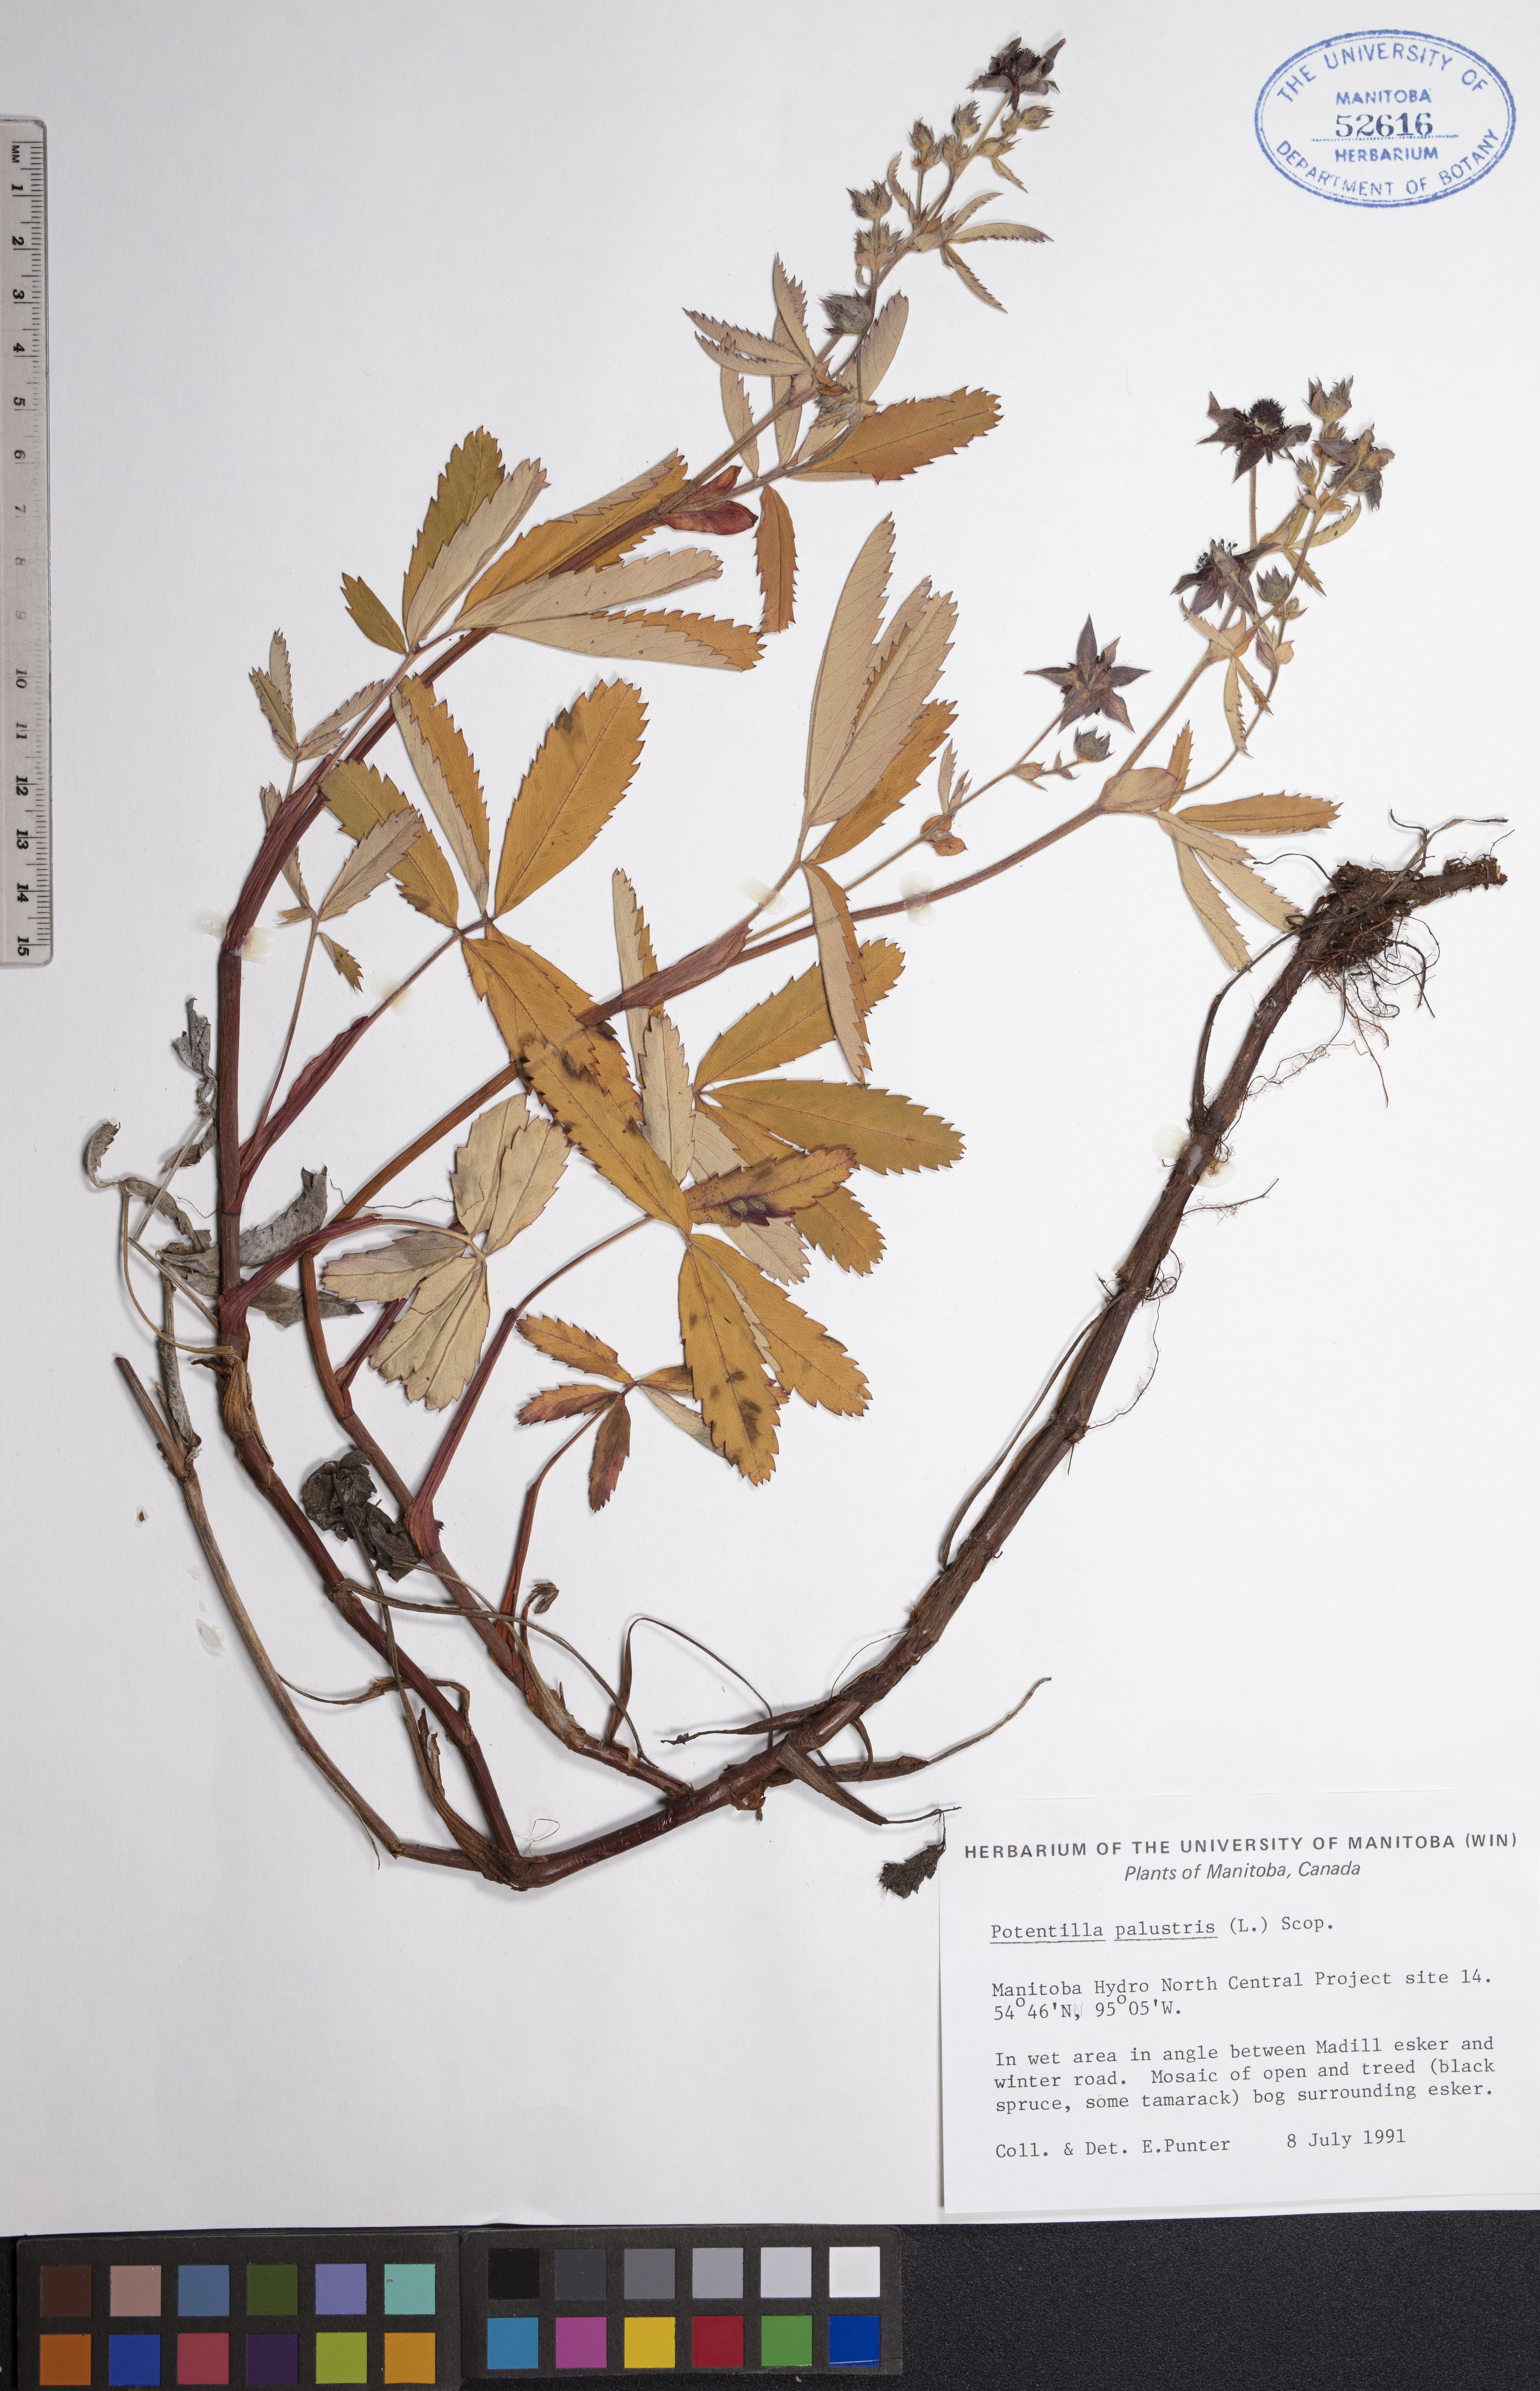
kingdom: Plantae
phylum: Tracheophyta
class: Magnoliopsida
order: Rosales
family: Rosaceae
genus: Comarum
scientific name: Comarum palustre
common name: Marsh cinquefoil
